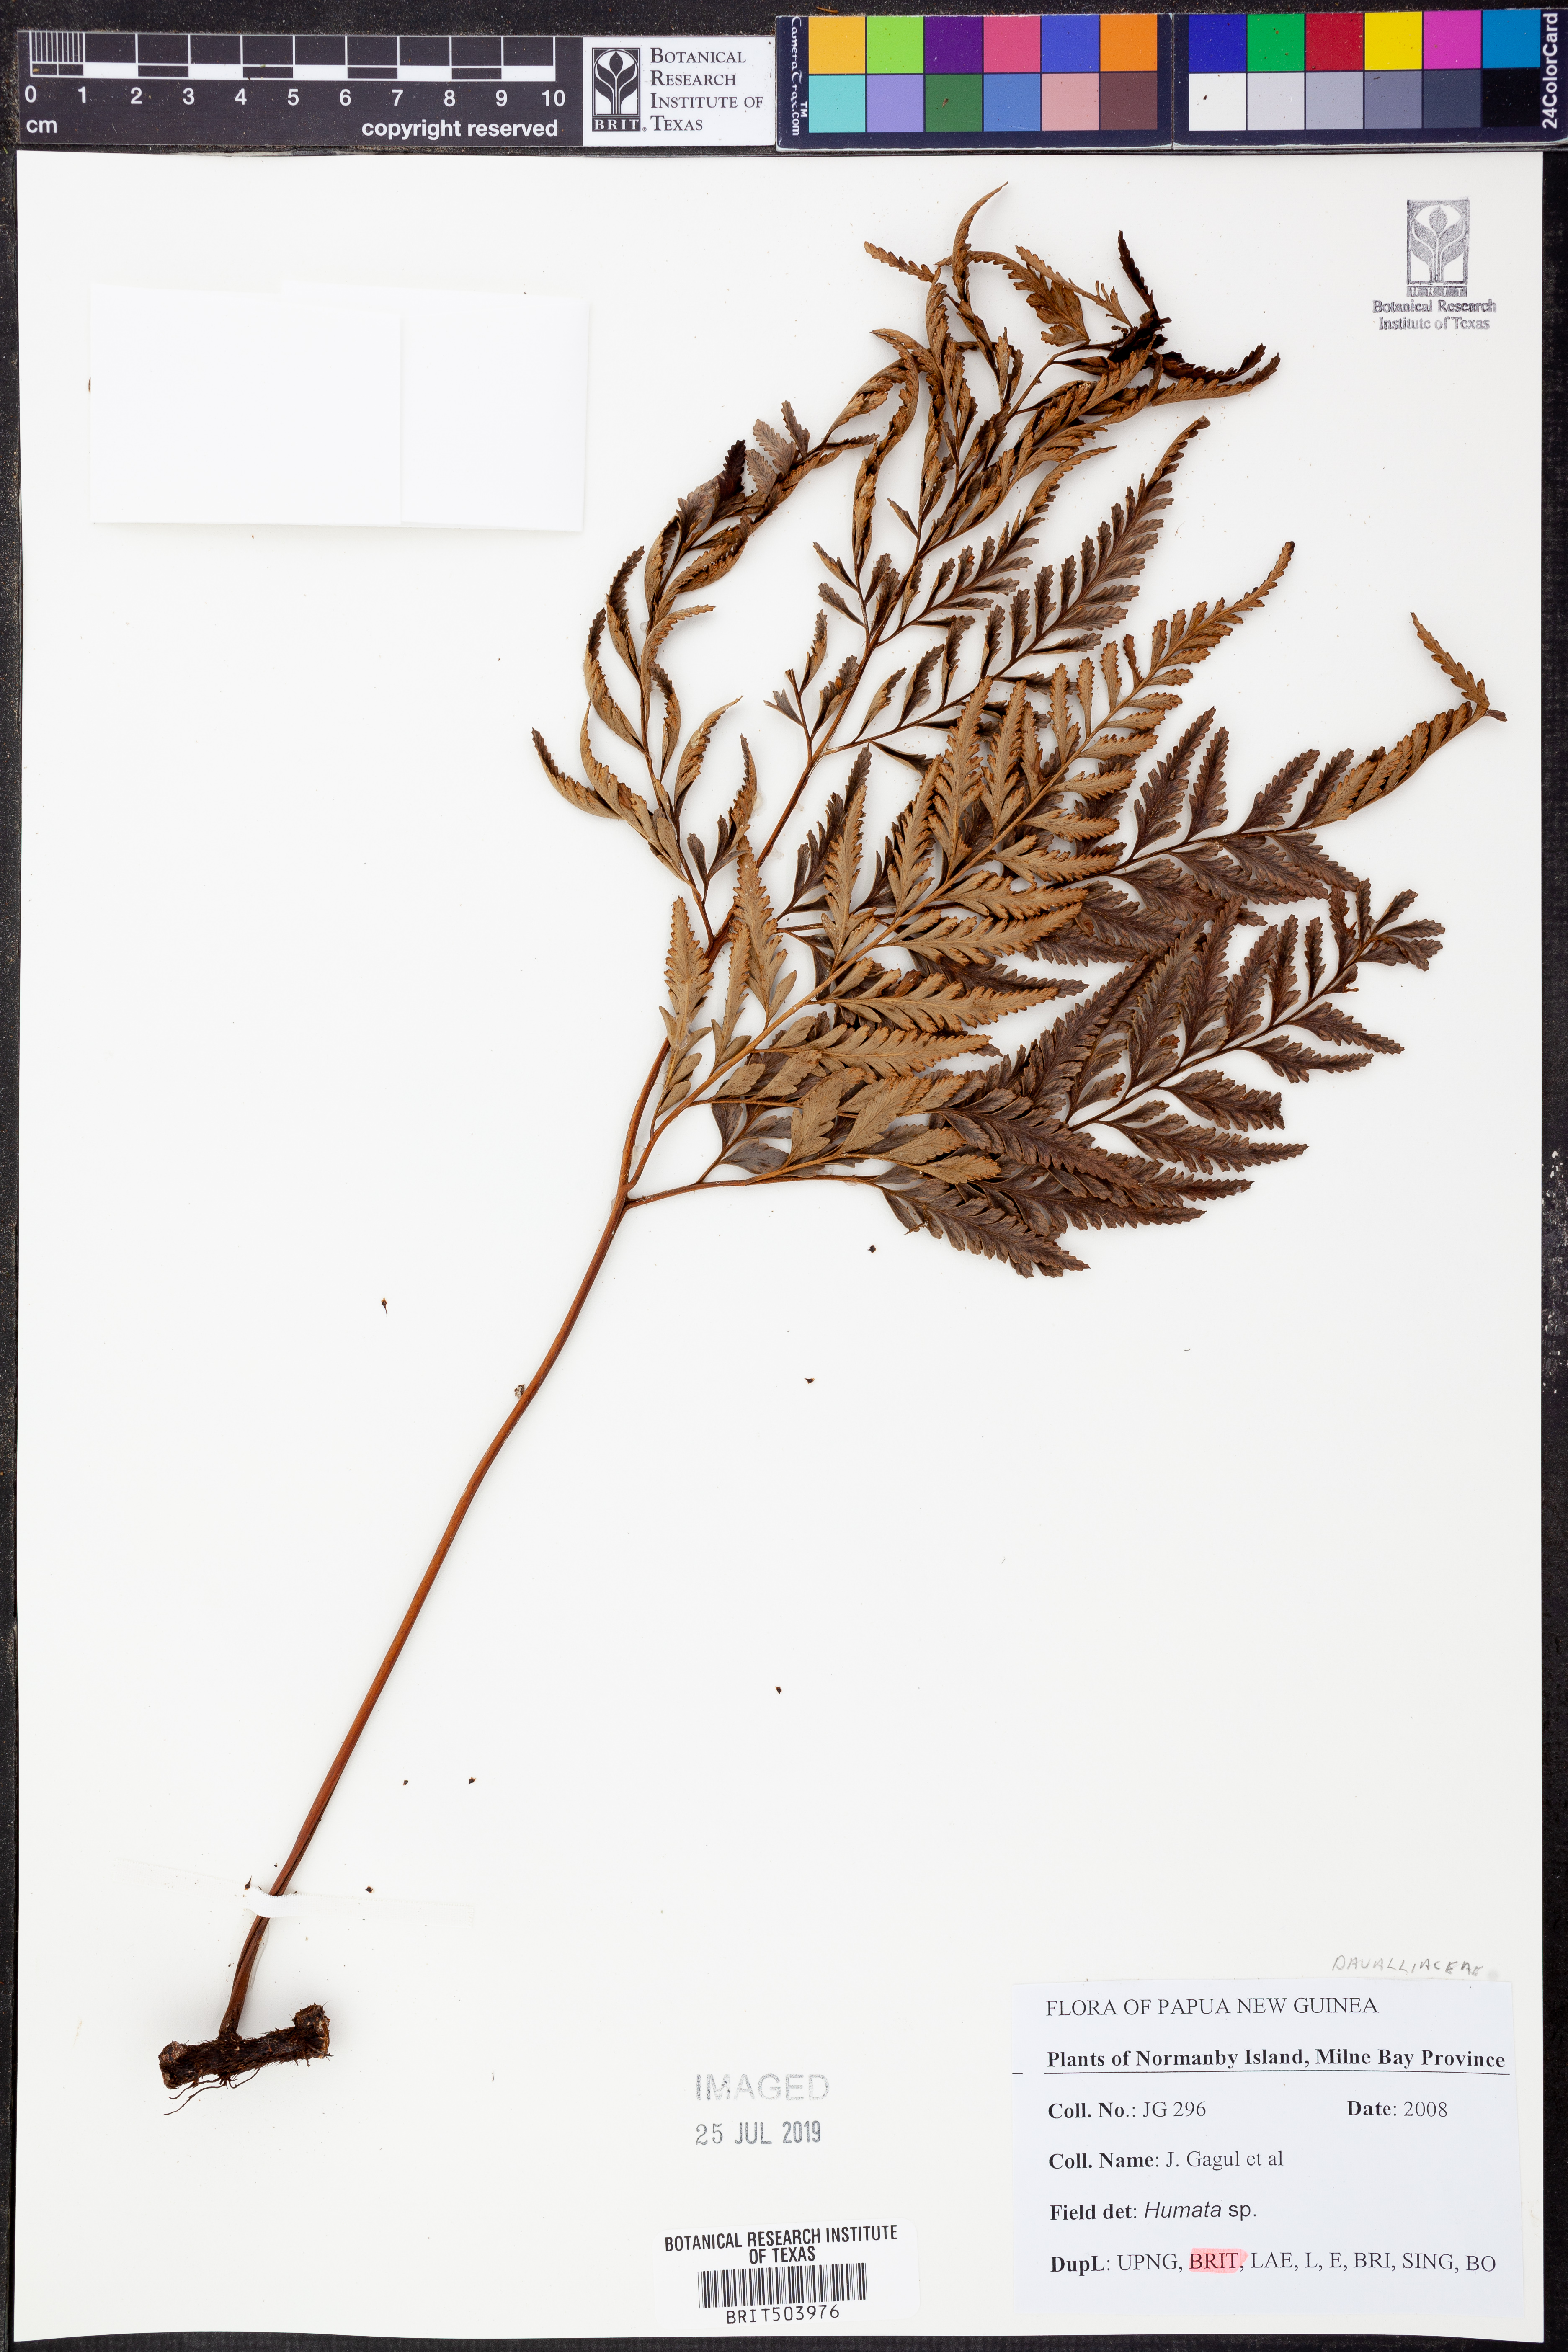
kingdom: Plantae
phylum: Tracheophyta
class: Polypodiopsida
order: Polypodiales
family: Davalliaceae
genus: Davallia
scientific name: Davallia
